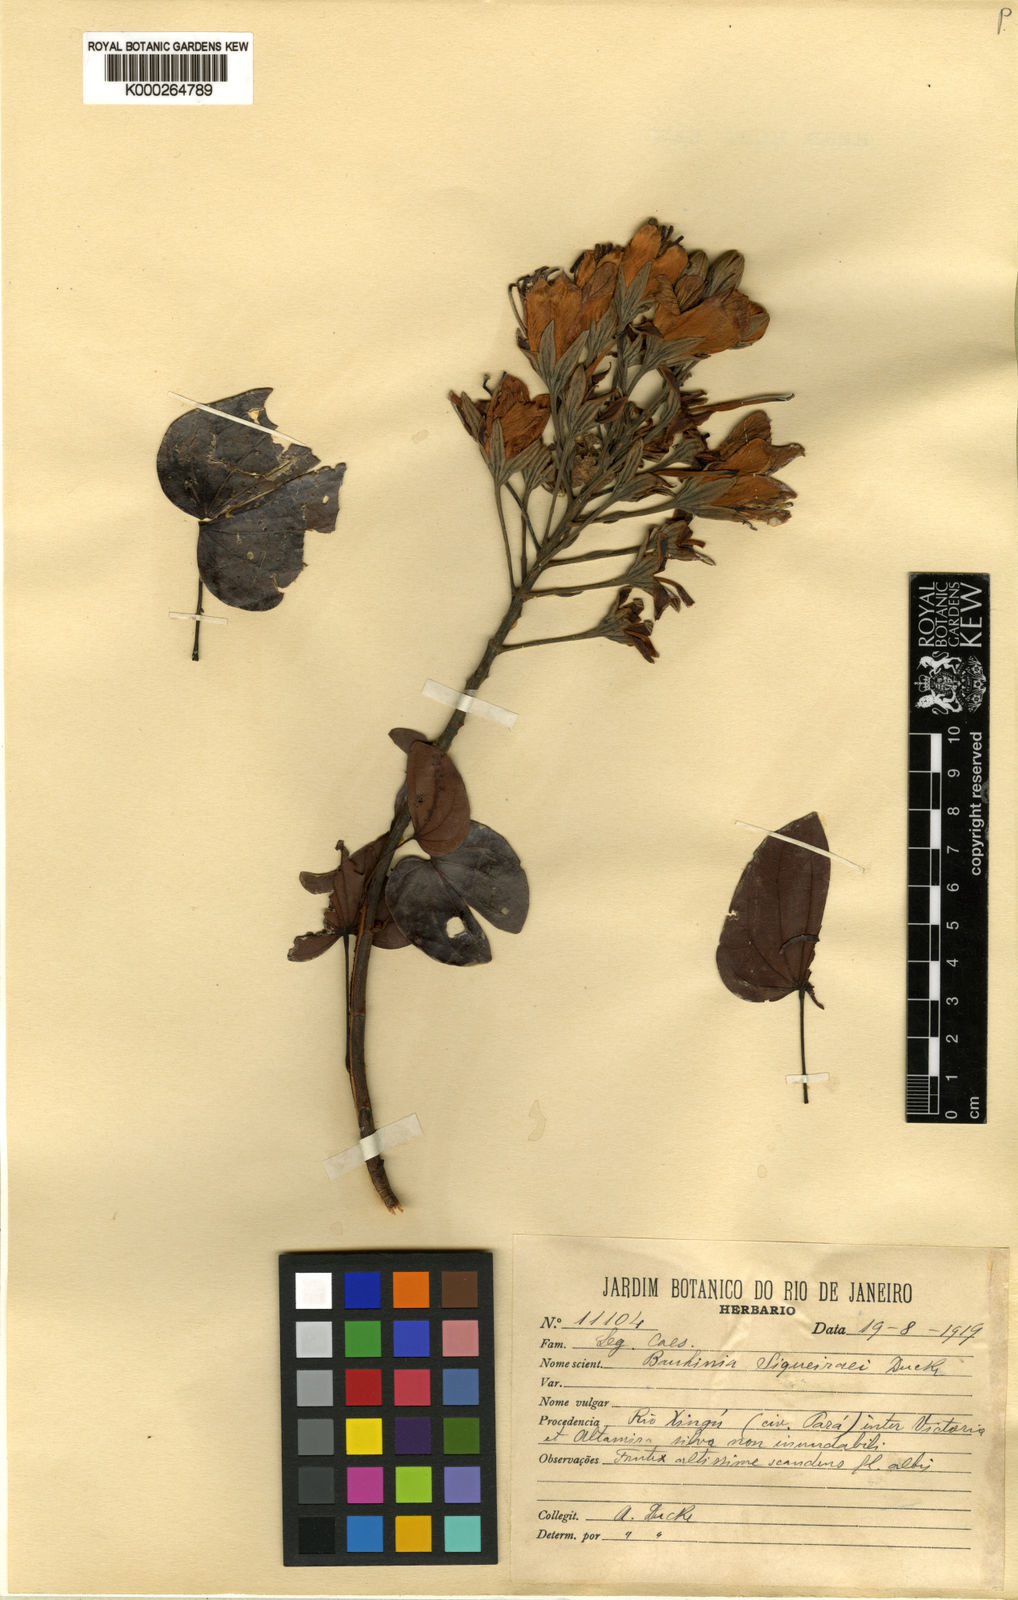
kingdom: Plantae
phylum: Tracheophyta
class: Magnoliopsida
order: Fabales
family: Fabaceae
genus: Bauhinia
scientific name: Bauhinia
